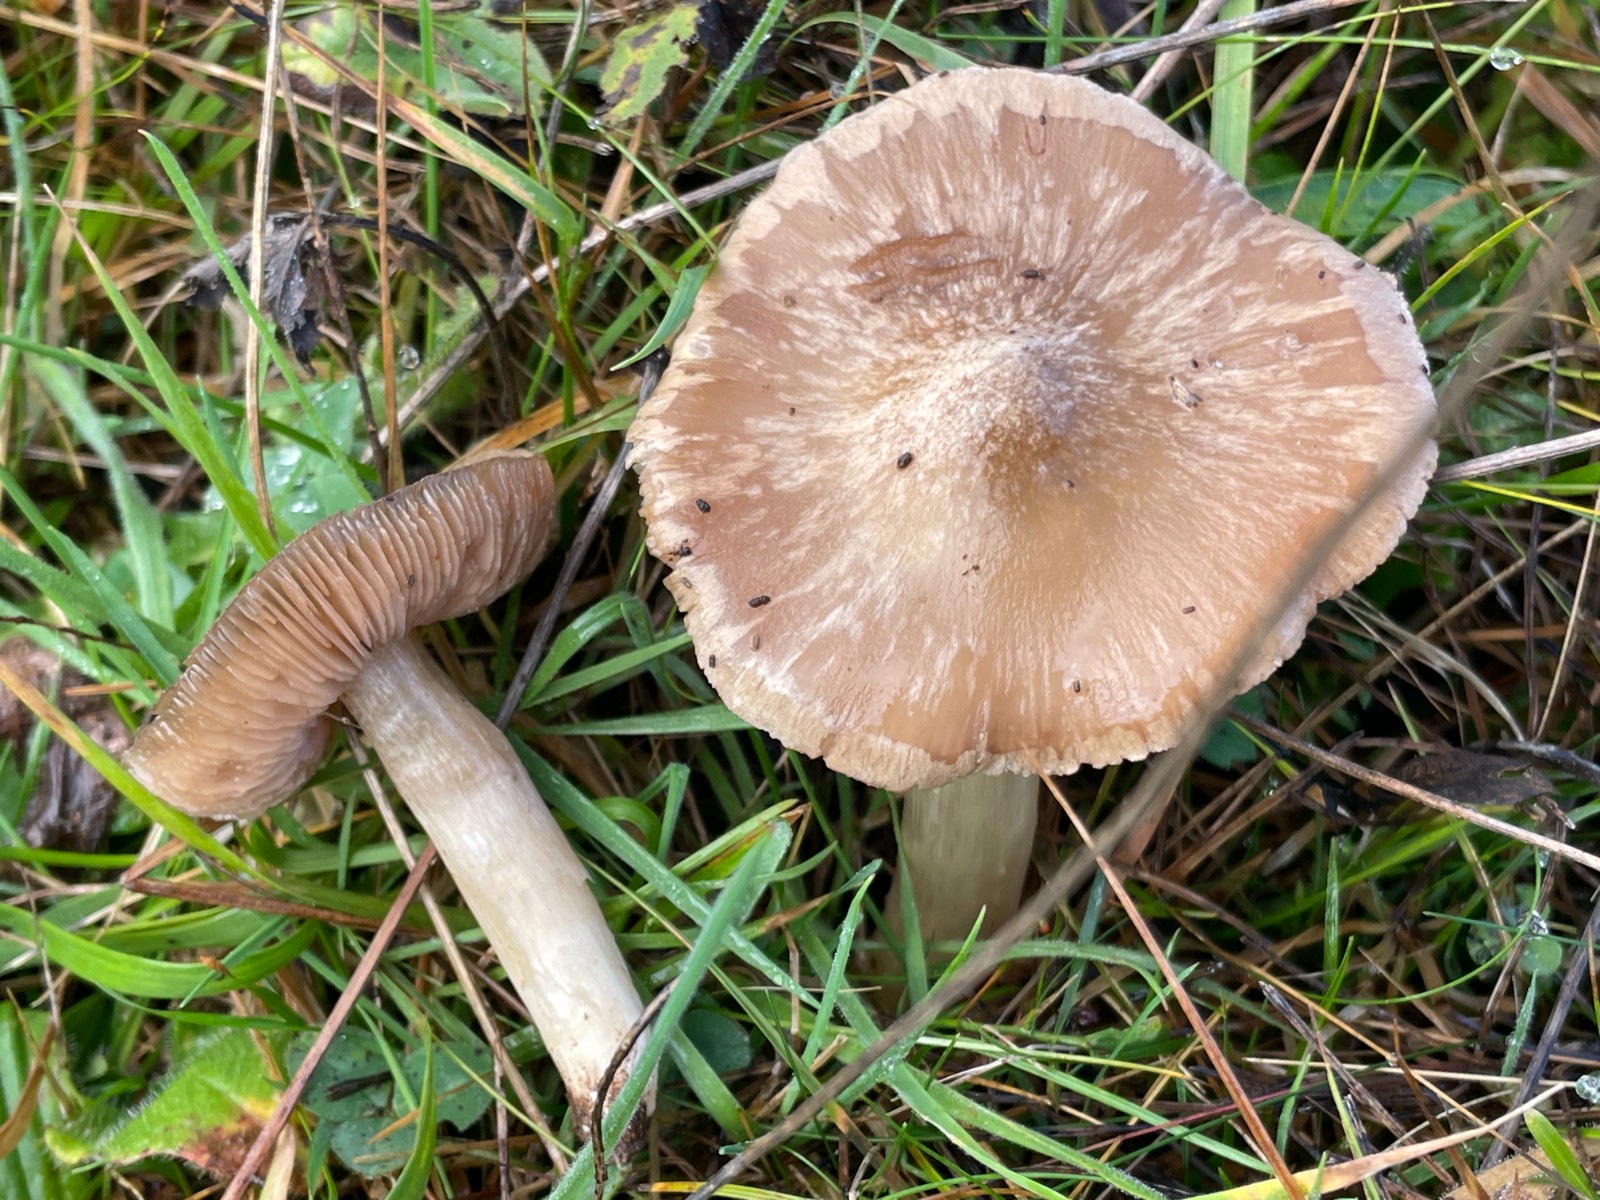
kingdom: Fungi
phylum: Basidiomycota
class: Agaricomycetes
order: Agaricales
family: Entolomataceae
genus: Entoloma
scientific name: Entoloma prunuloides
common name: mel-rødblad
